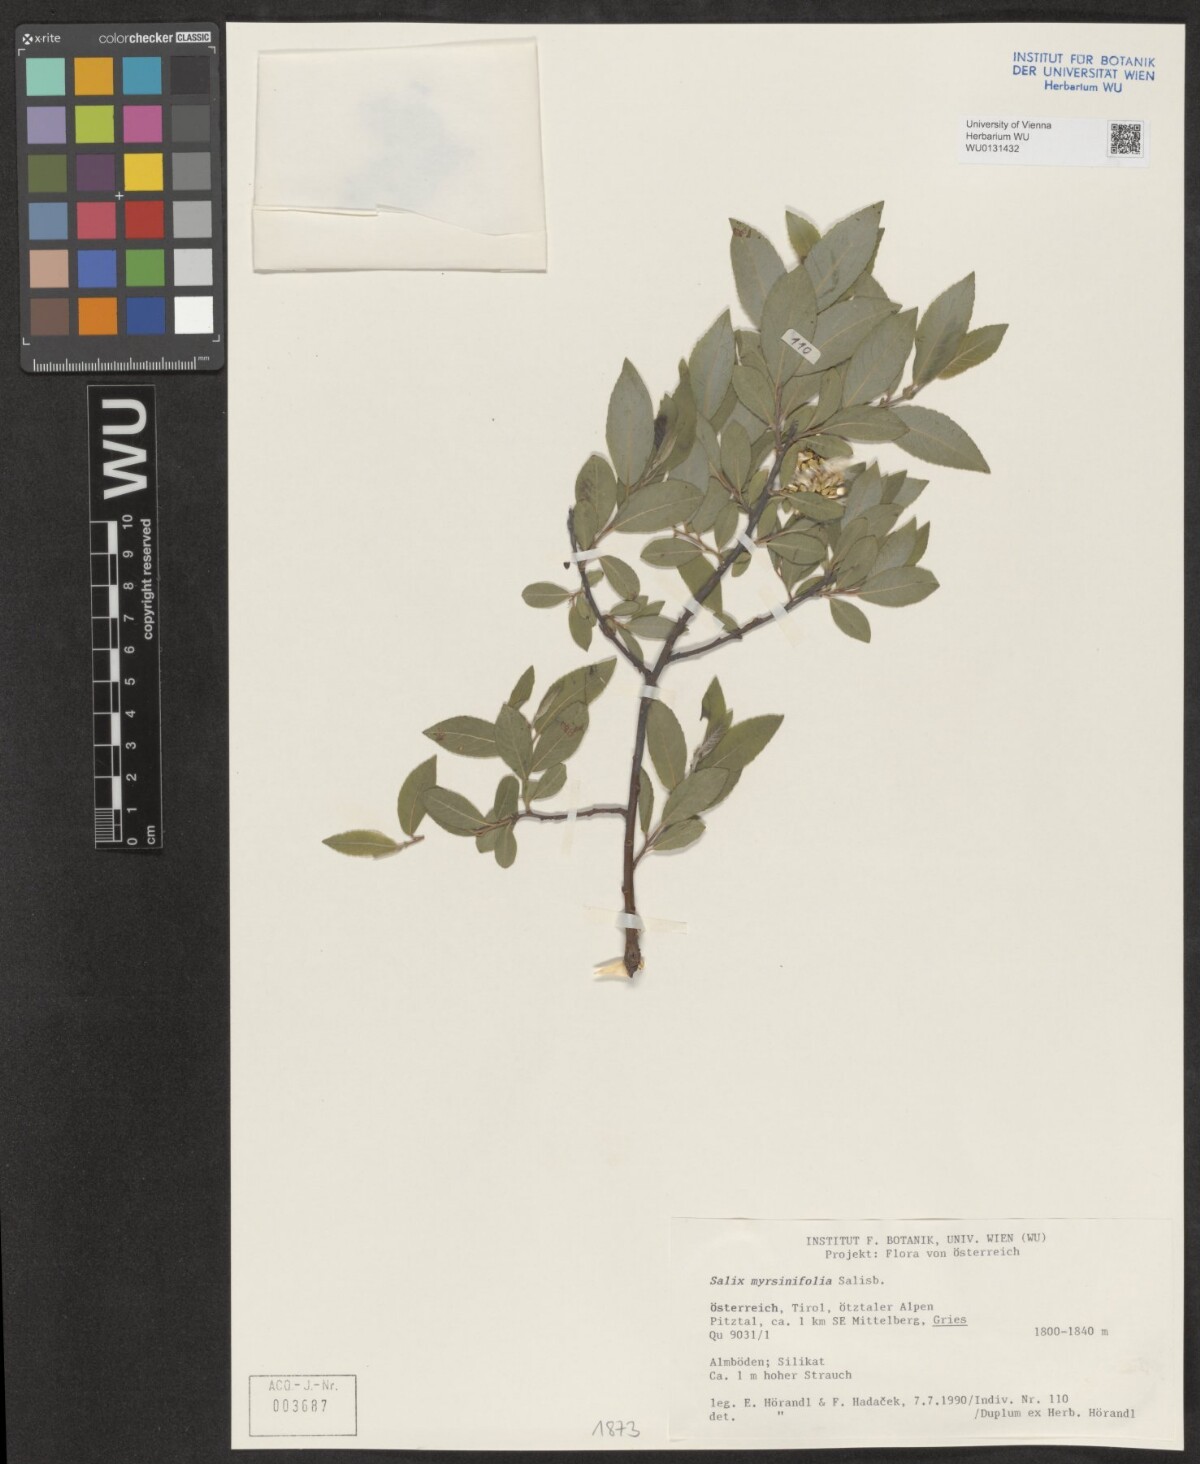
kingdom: Plantae
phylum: Tracheophyta
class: Magnoliopsida
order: Malpighiales
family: Salicaceae
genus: Salix
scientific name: Salix myrsinifolia
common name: Dark-leaved willow
